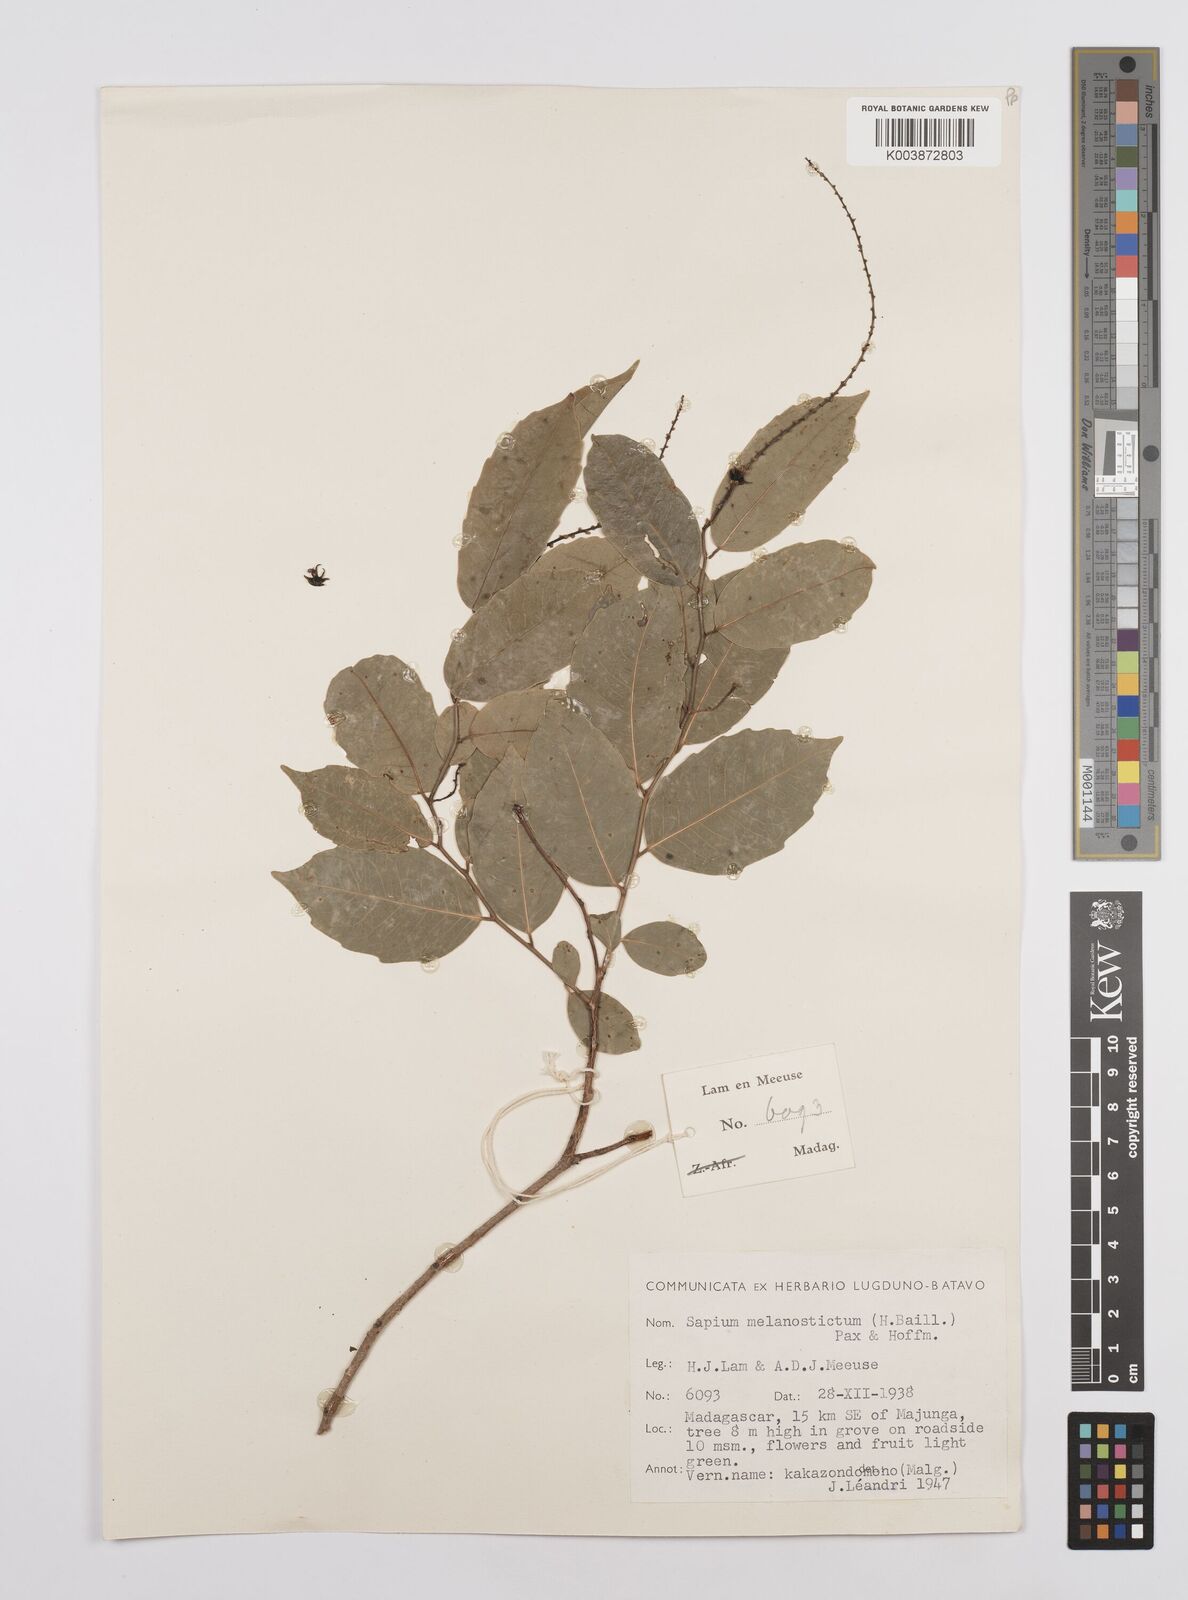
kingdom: Plantae
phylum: Tracheophyta
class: Magnoliopsida
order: Malpighiales
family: Euphorbiaceae
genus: Sclerocroton
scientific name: Sclerocroton melanostictus
